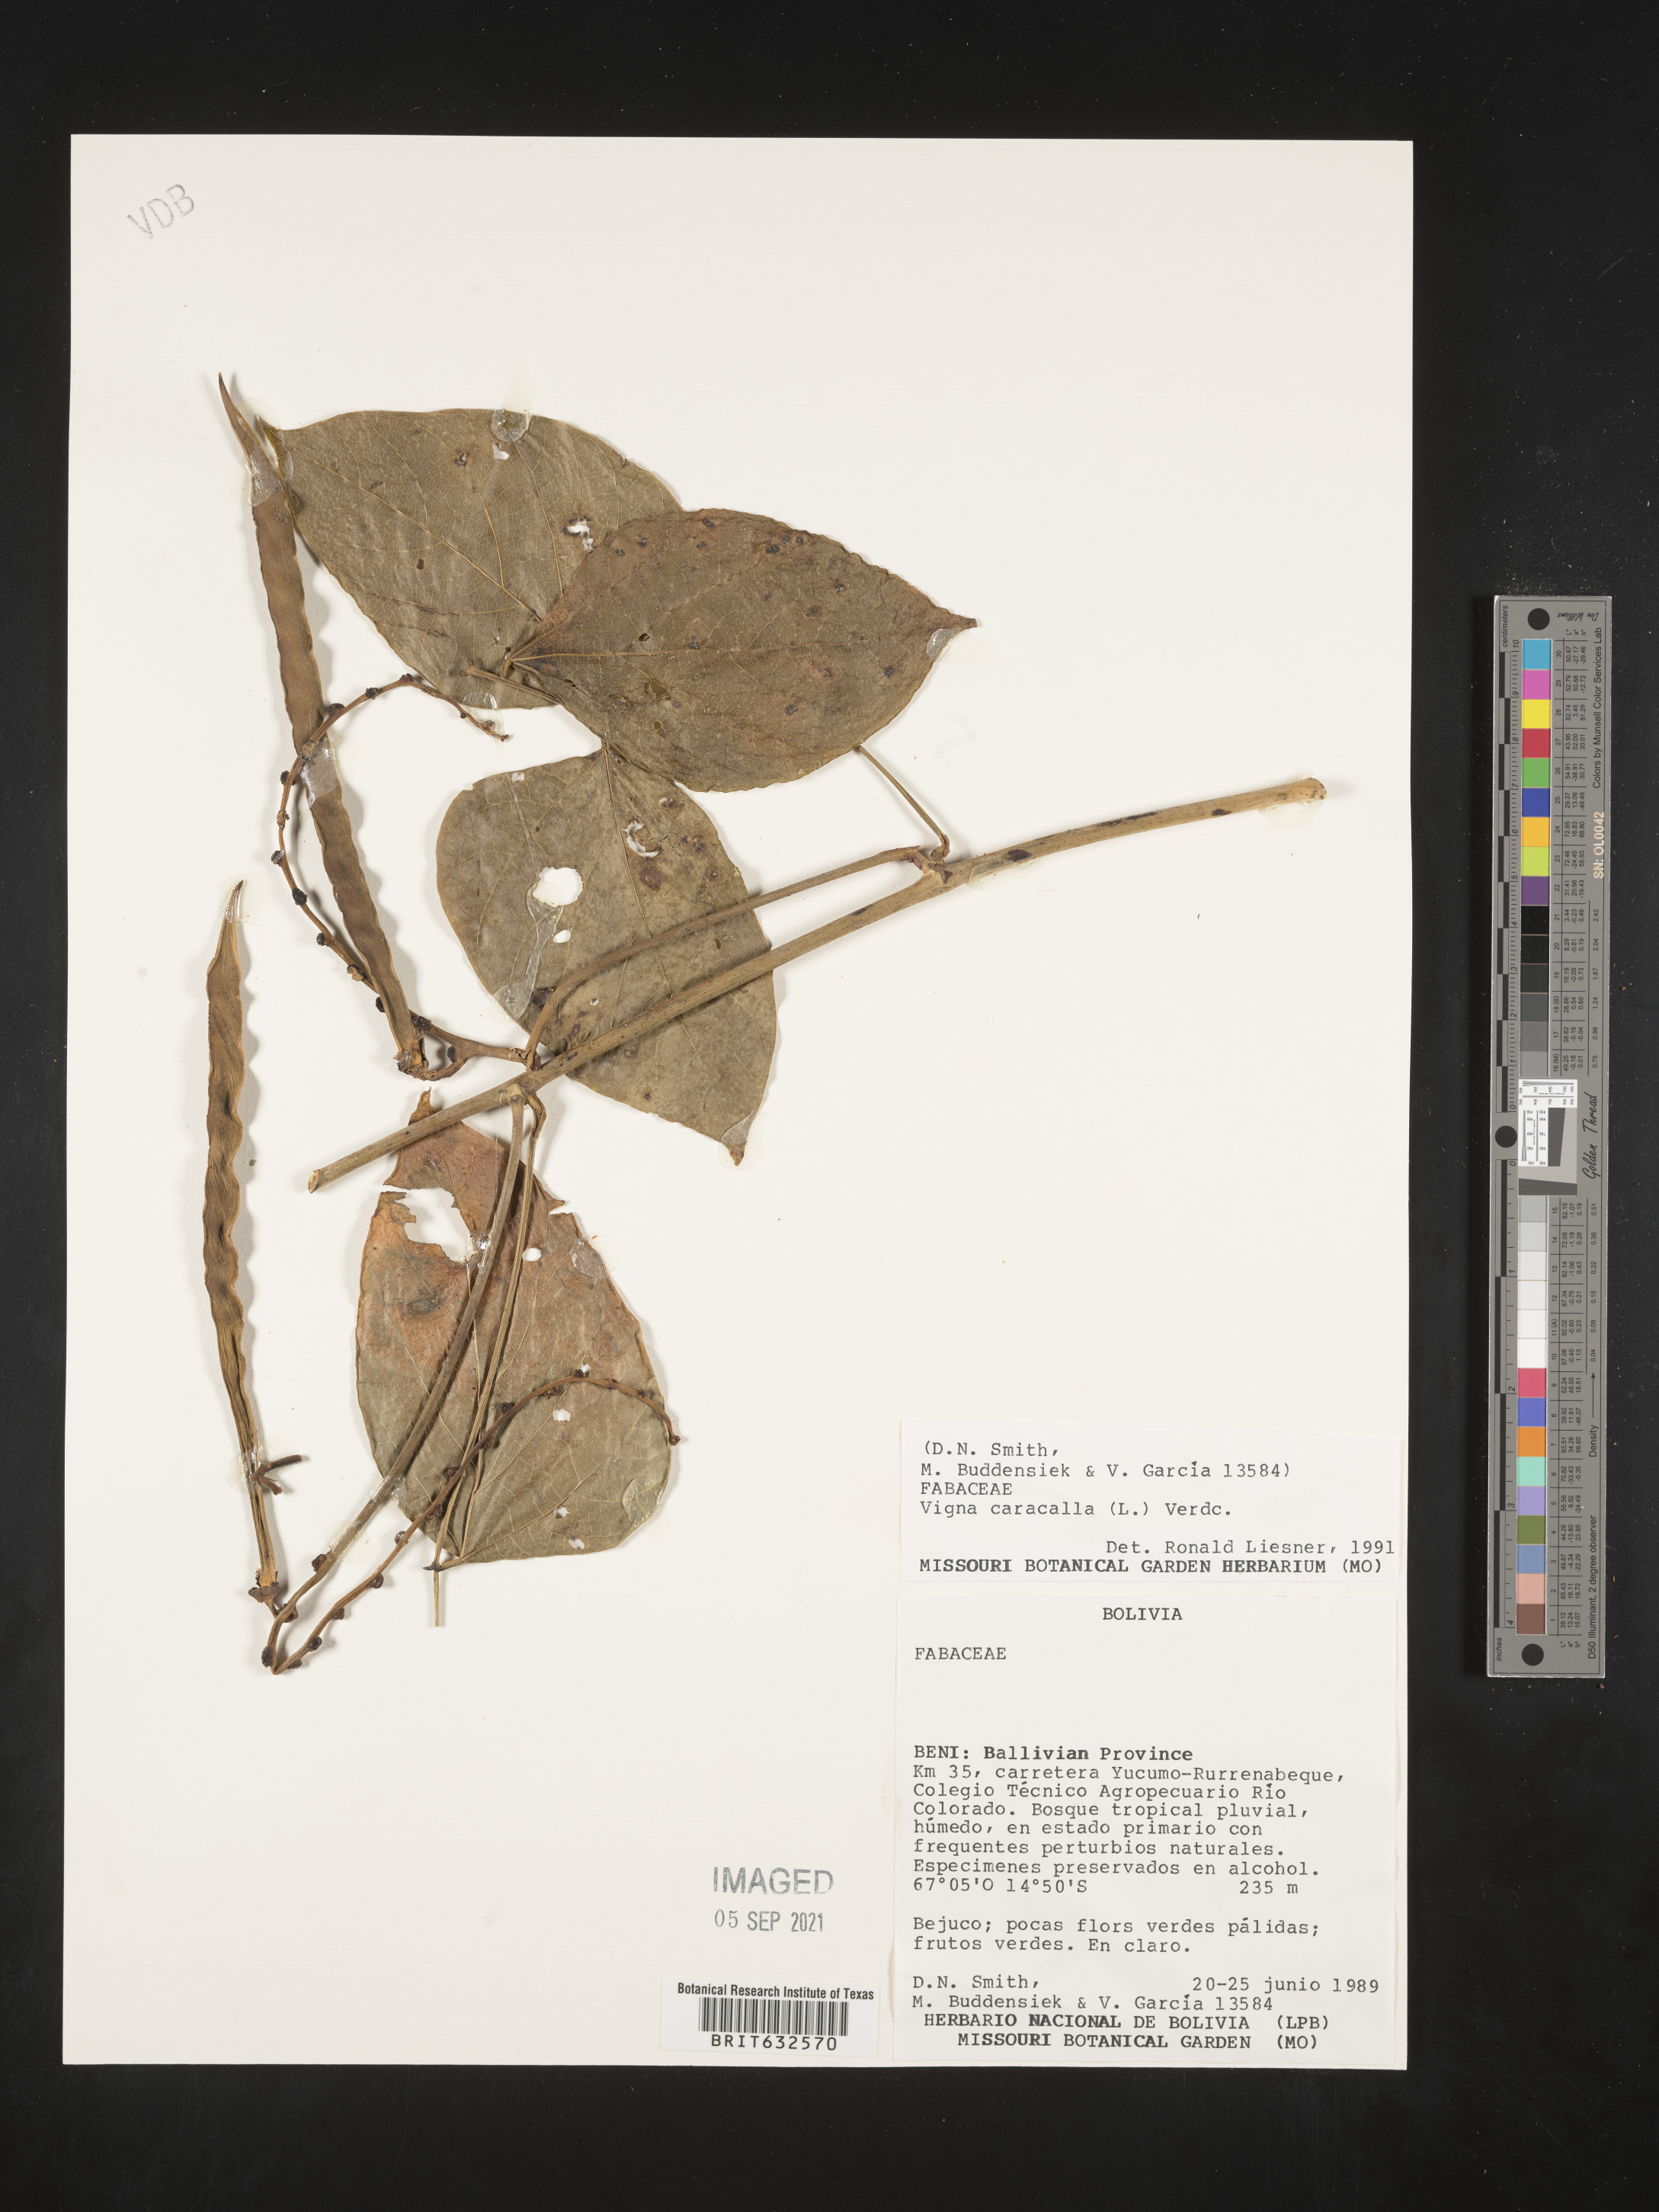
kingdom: Plantae
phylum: Tracheophyta
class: Magnoliopsida
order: Fabales
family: Fabaceae
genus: Vigna
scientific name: Vigna
